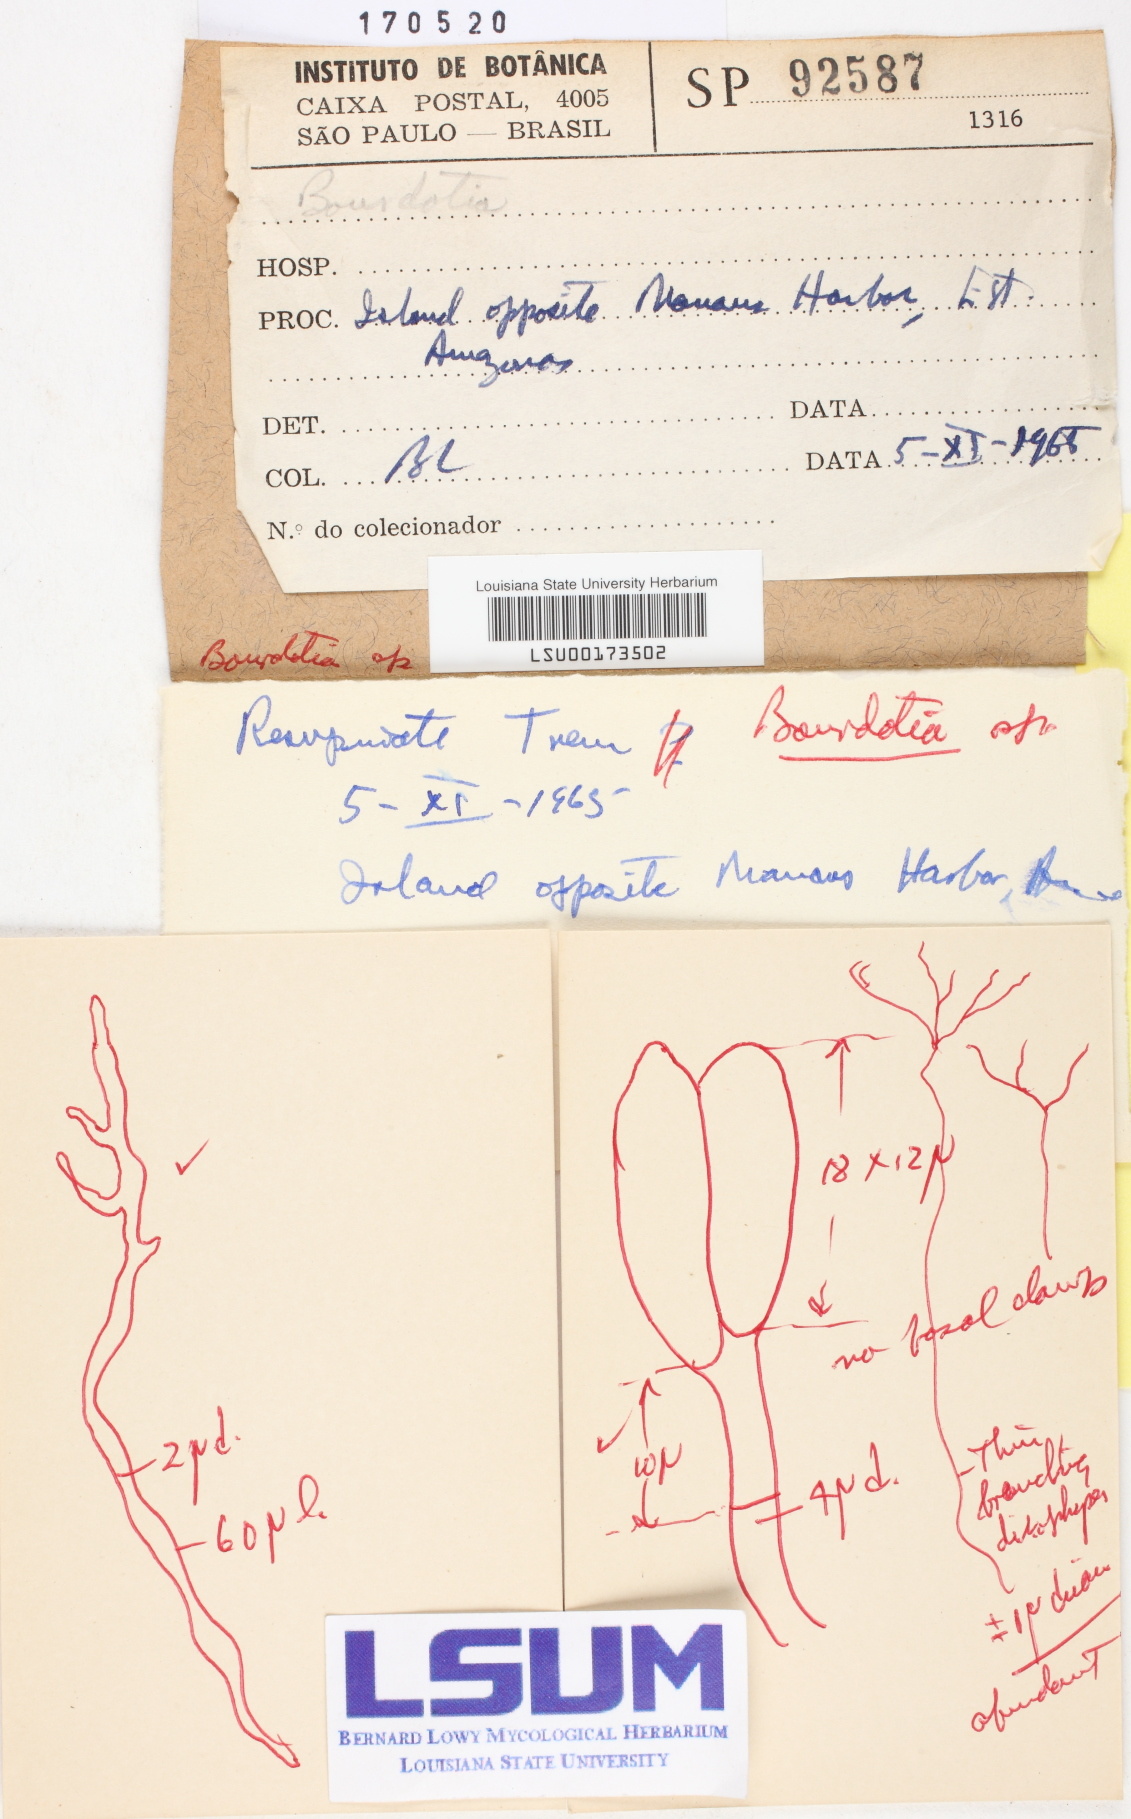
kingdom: Fungi
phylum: Basidiomycota
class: Tremellomycetes
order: Tremellales
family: Exidiaceae
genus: Bourdotia
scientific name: Bourdotia
